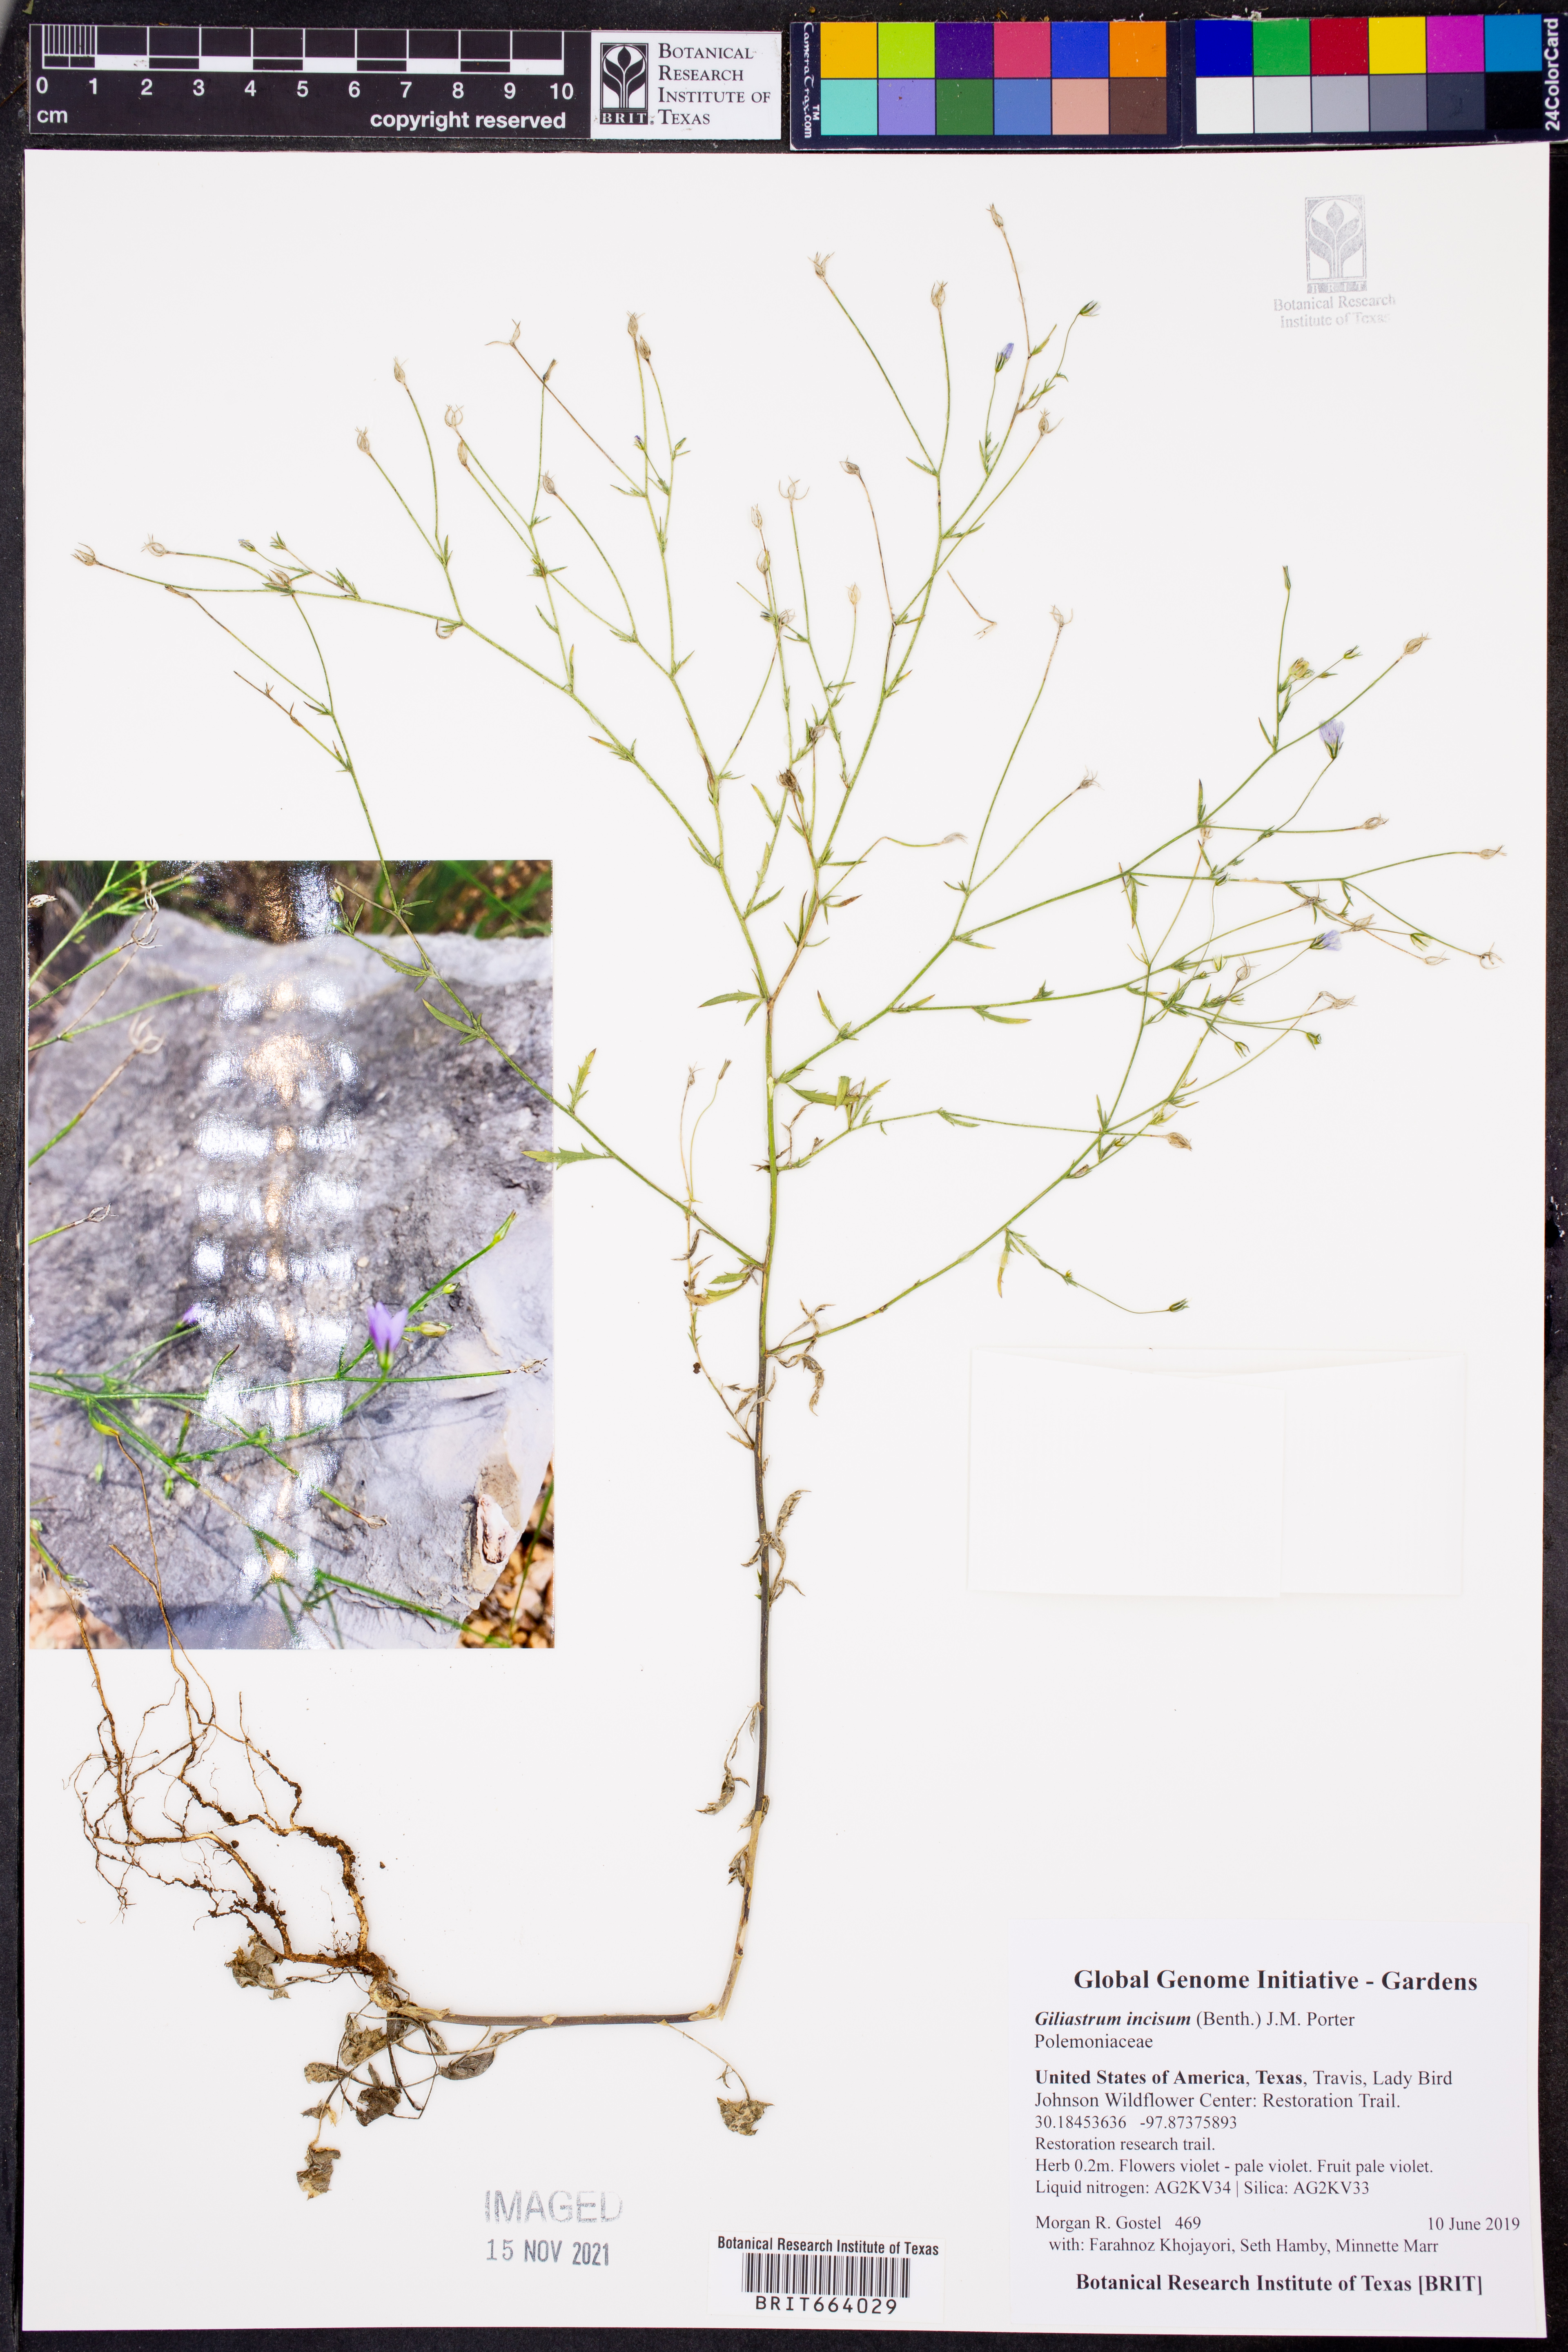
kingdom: Plantae
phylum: Tracheophyta
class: Magnoliopsida
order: Ericales
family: Polemoniaceae
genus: Giliastrum
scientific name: Giliastrum incisum
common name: Splitleaf gilia
